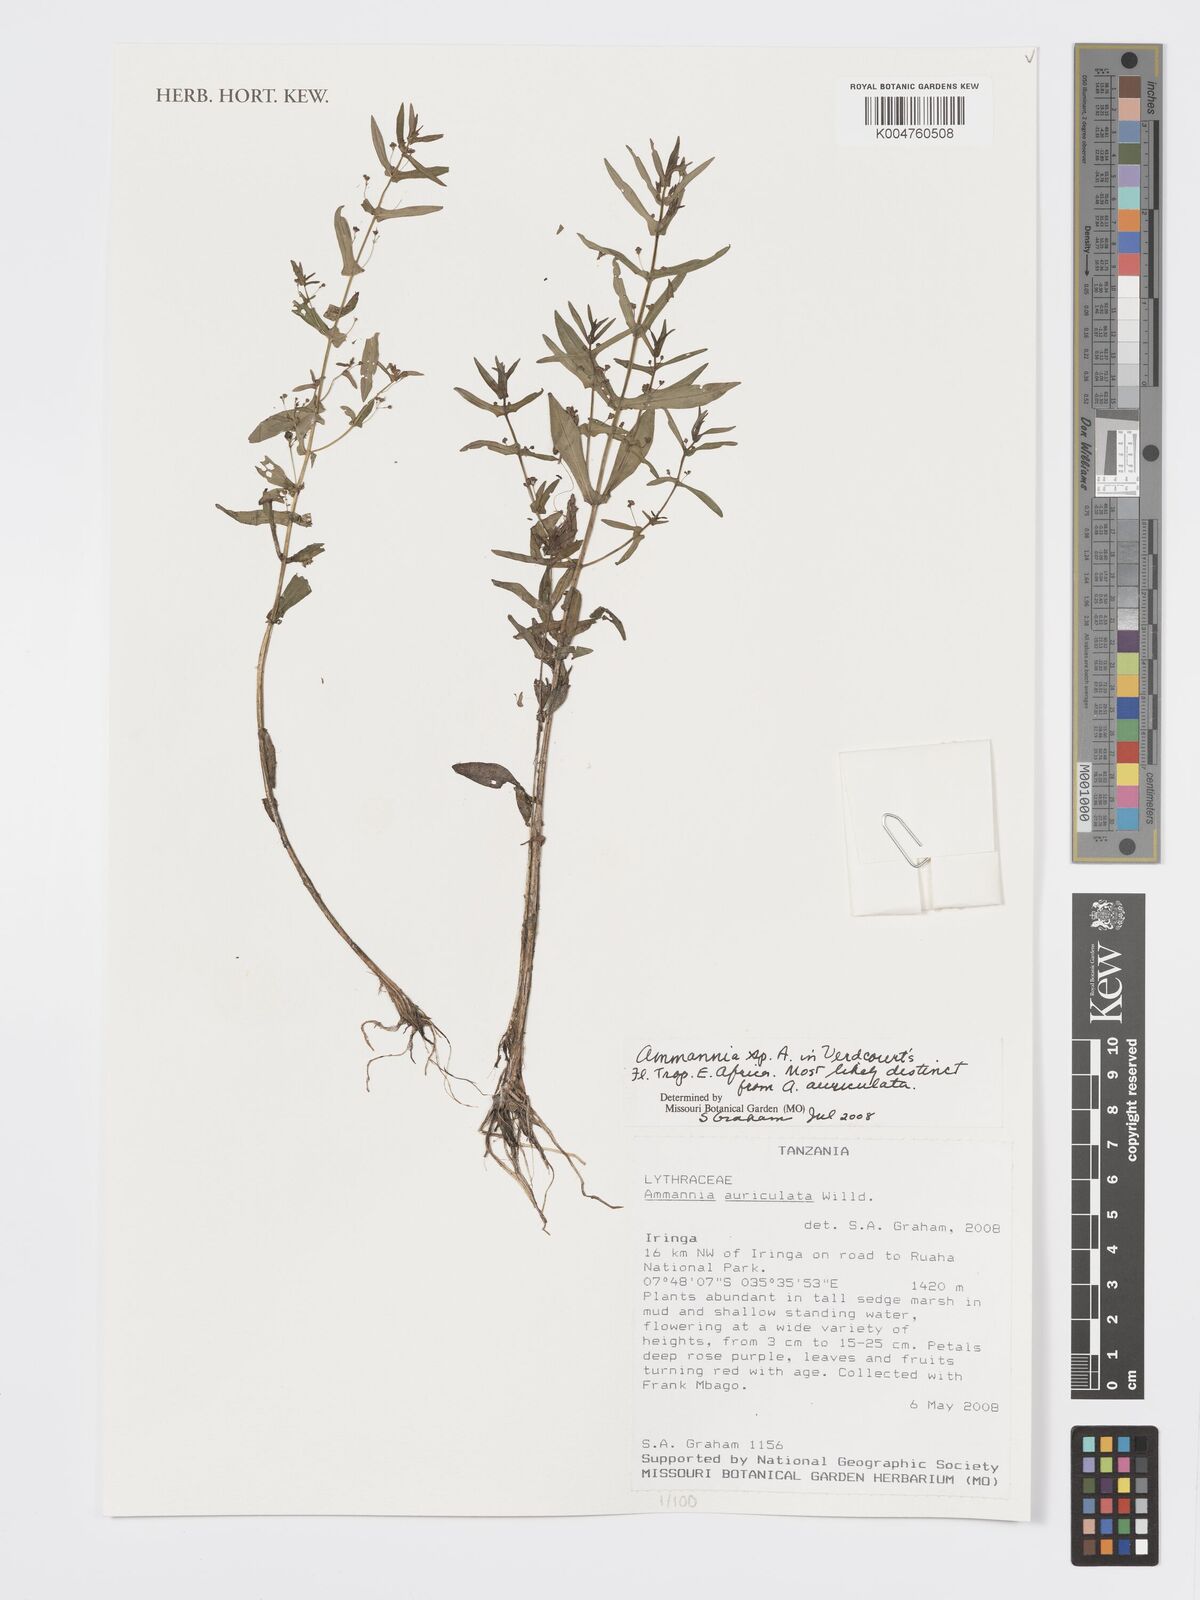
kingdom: Plantae
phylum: Tracheophyta
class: Magnoliopsida
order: Myrtales
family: Lythraceae
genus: Ammannia
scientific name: Ammannia
